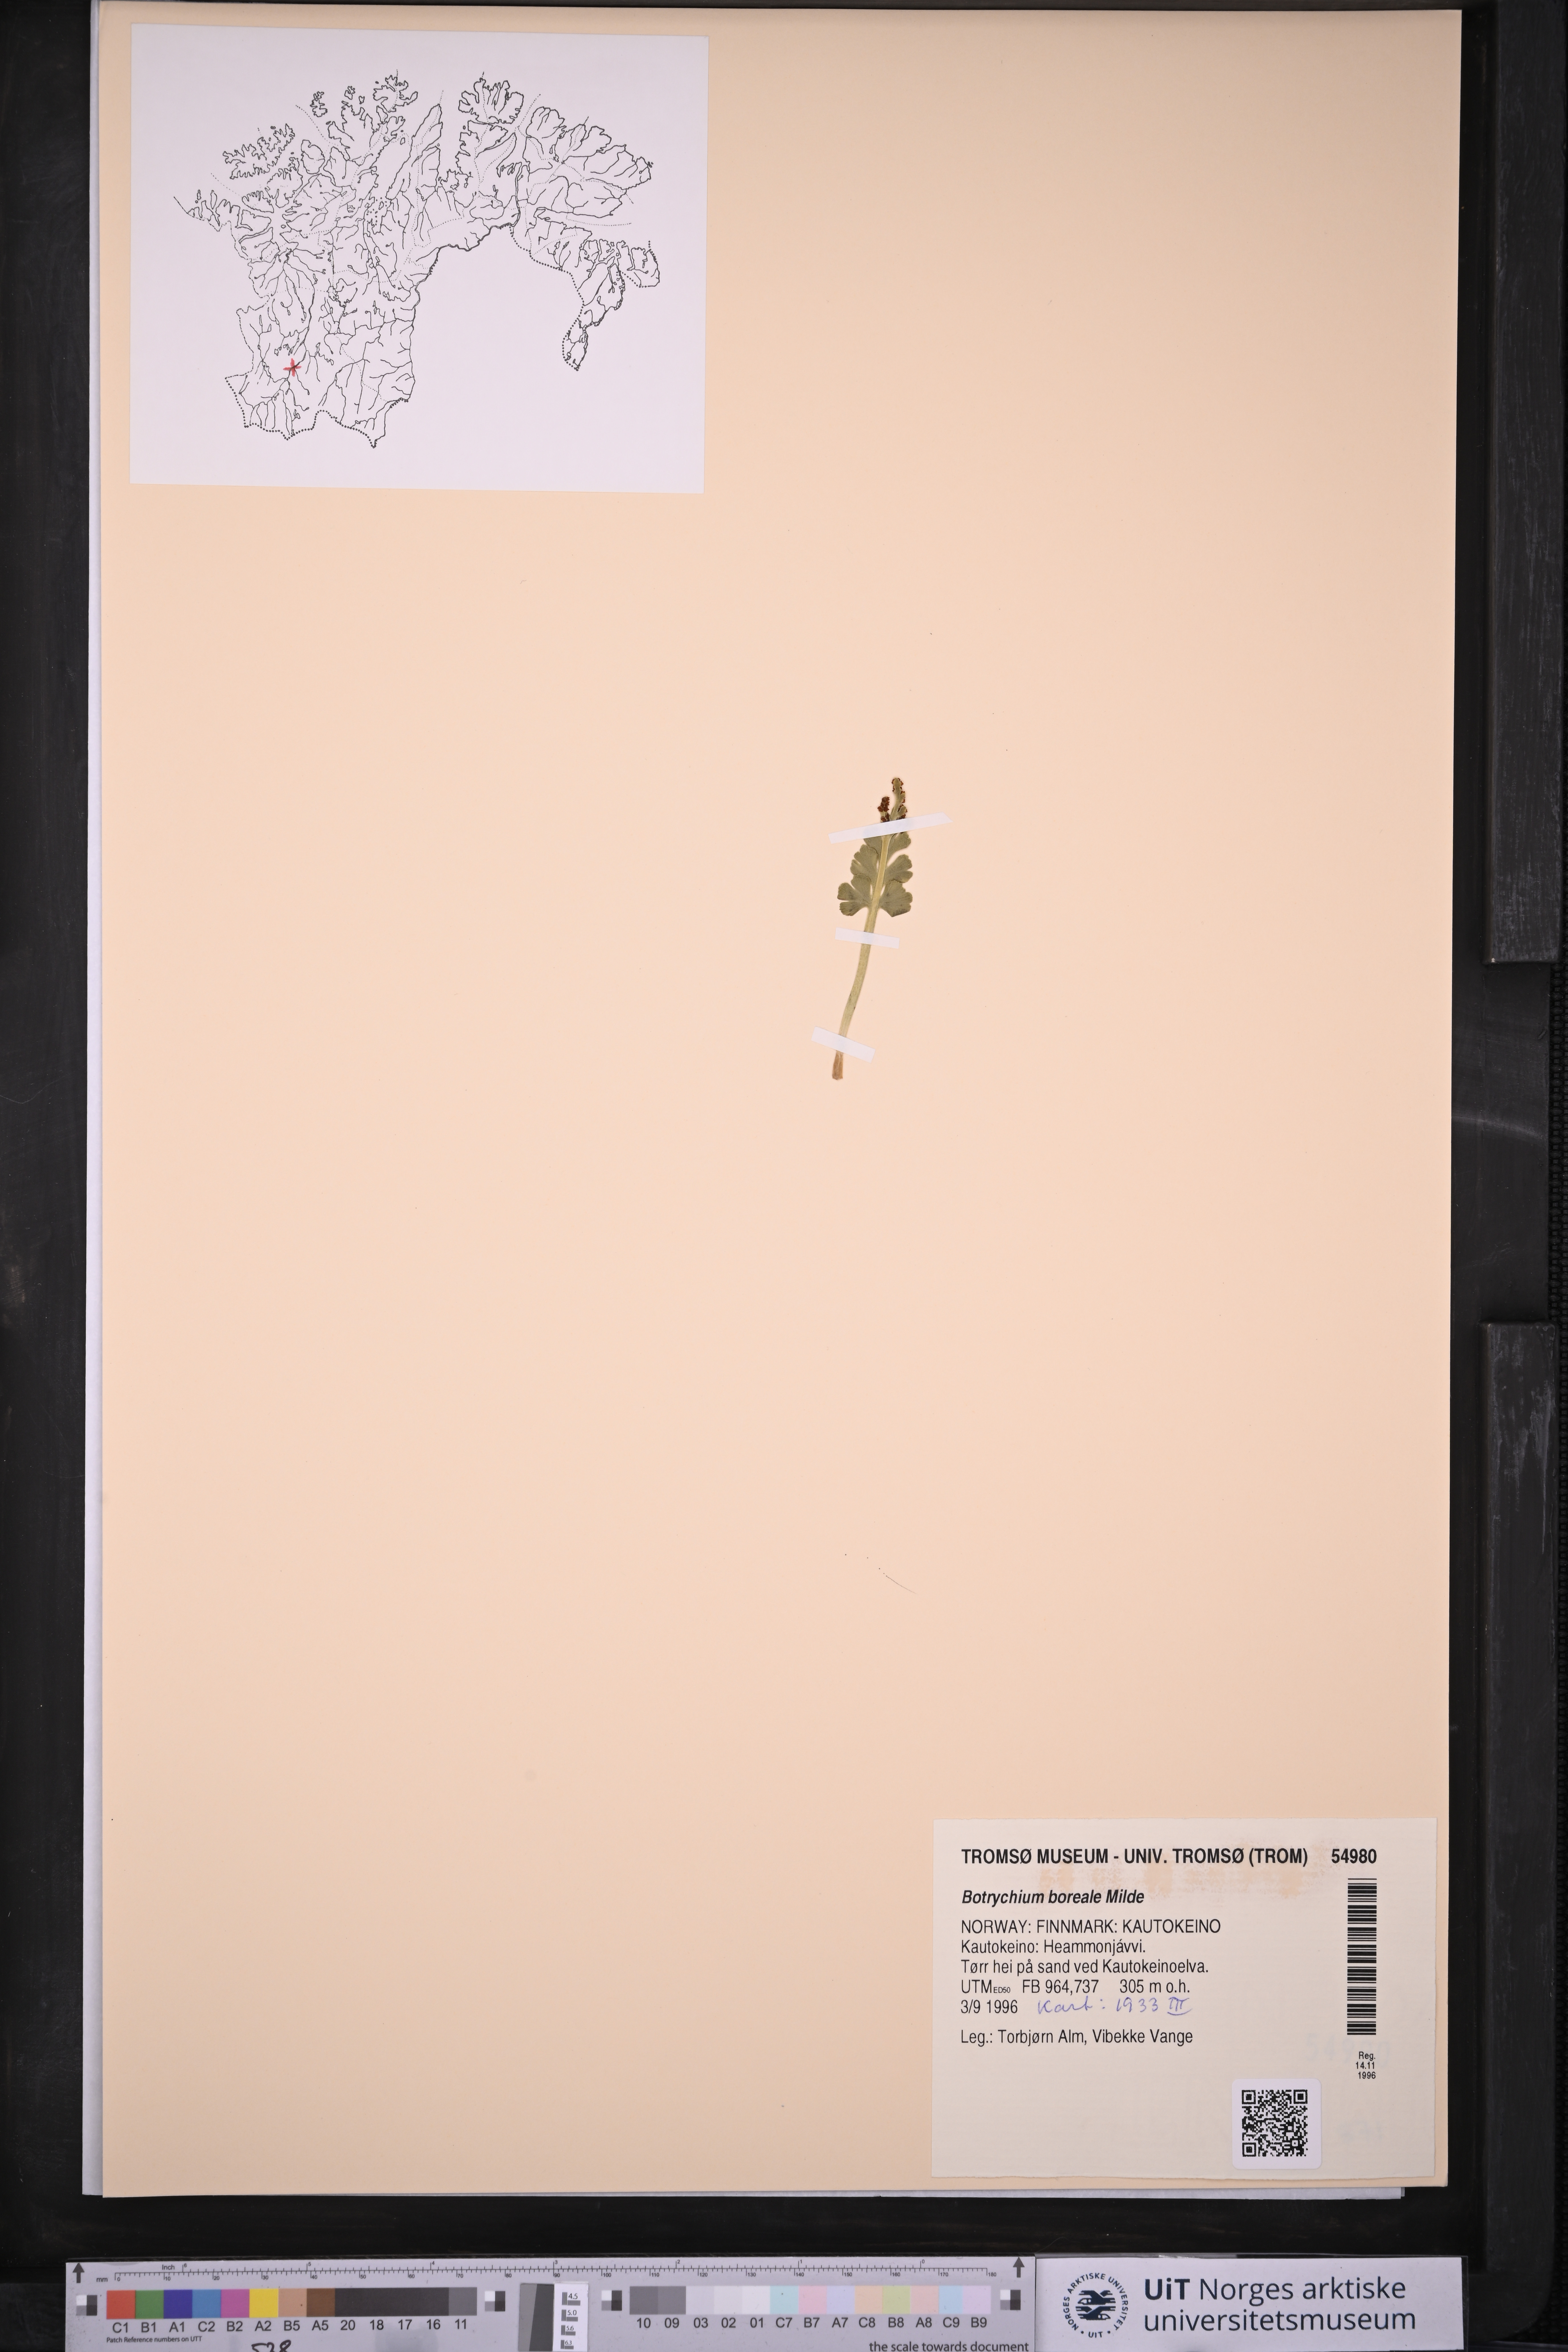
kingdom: Plantae
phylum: Tracheophyta
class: Polypodiopsida
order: Ophioglossales
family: Ophioglossaceae
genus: Botrychium
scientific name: Botrychium boreale
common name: Boreal moonwort
